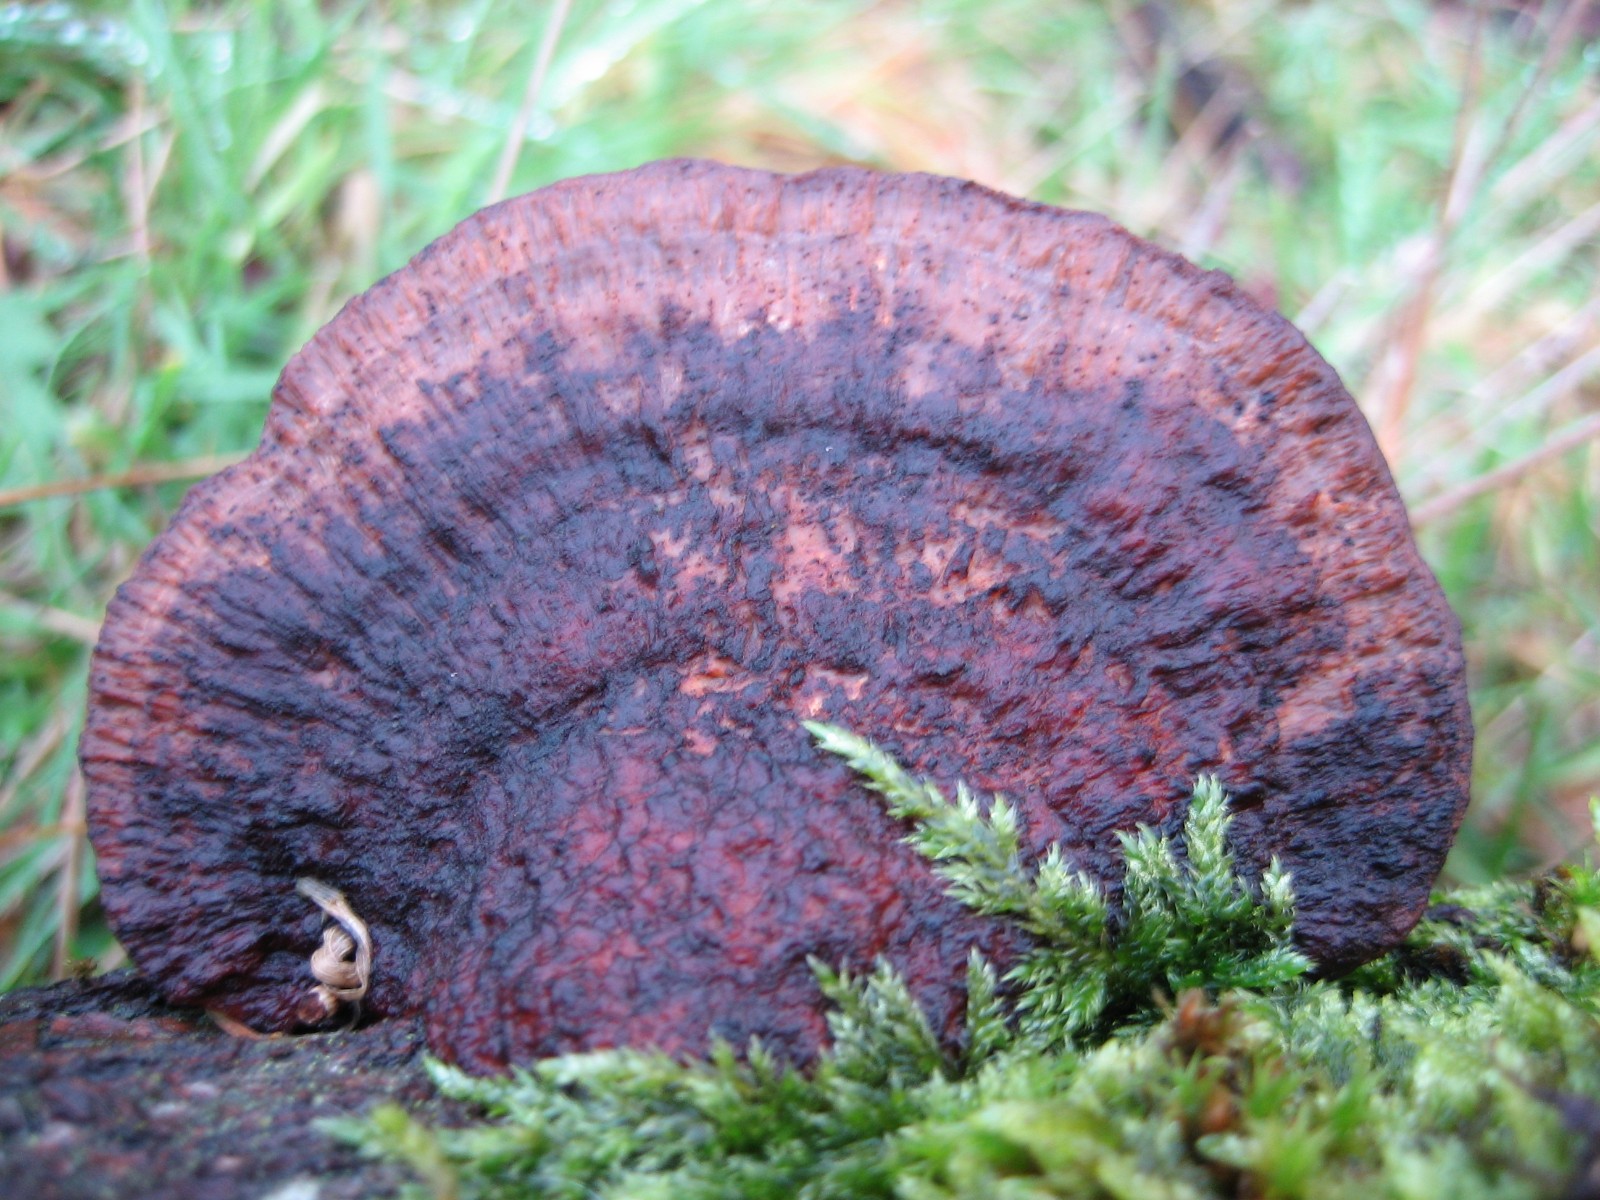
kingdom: Fungi
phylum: Basidiomycota
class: Agaricomycetes
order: Polyporales
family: Polyporaceae
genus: Daedaleopsis
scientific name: Daedaleopsis confragosa
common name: rødmende læderporesvamp
